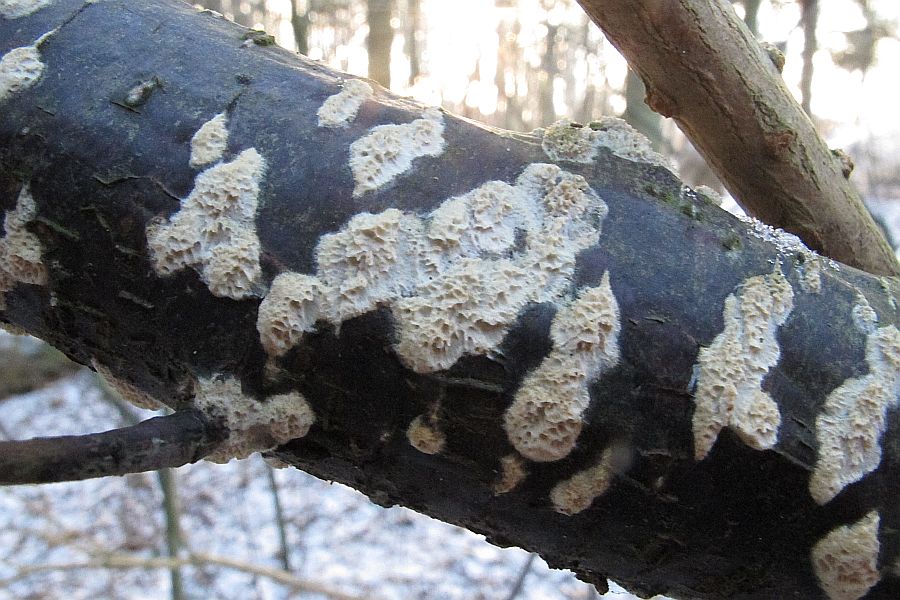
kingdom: Fungi
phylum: Basidiomycota
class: Agaricomycetes
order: Hymenochaetales
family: Schizoporaceae
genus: Schizopora
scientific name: Schizopora paradoxa
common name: hvid tandsvamp
